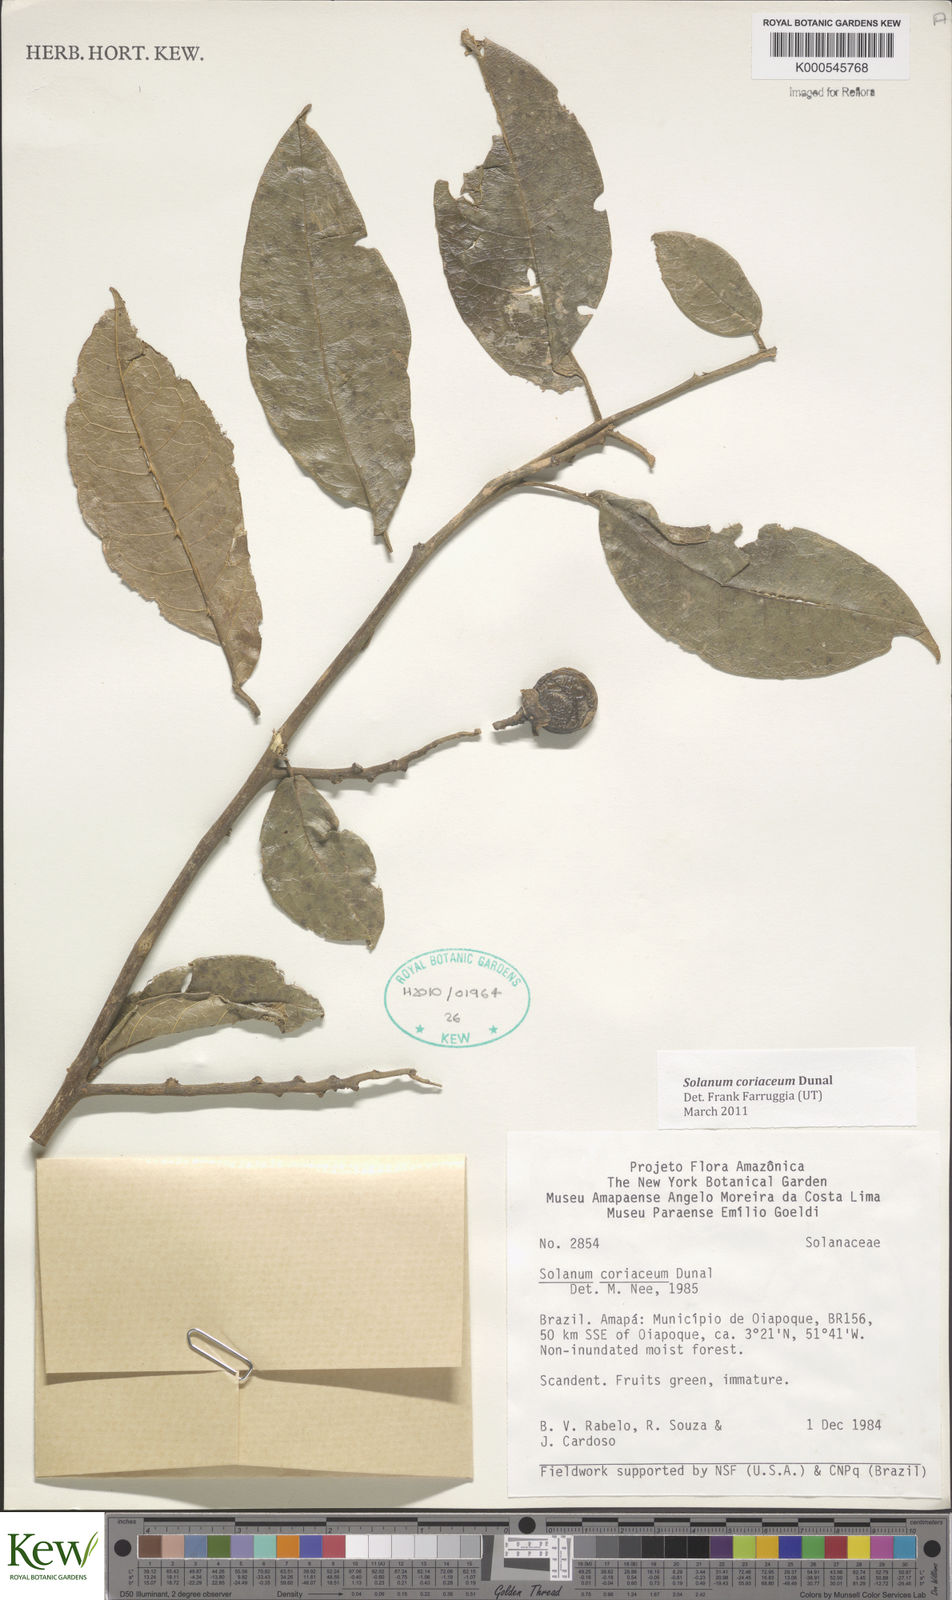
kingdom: Plantae
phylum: Tracheophyta
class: Magnoliopsida
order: Solanales
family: Solanaceae
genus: Solanum
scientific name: Solanum coriaceum
